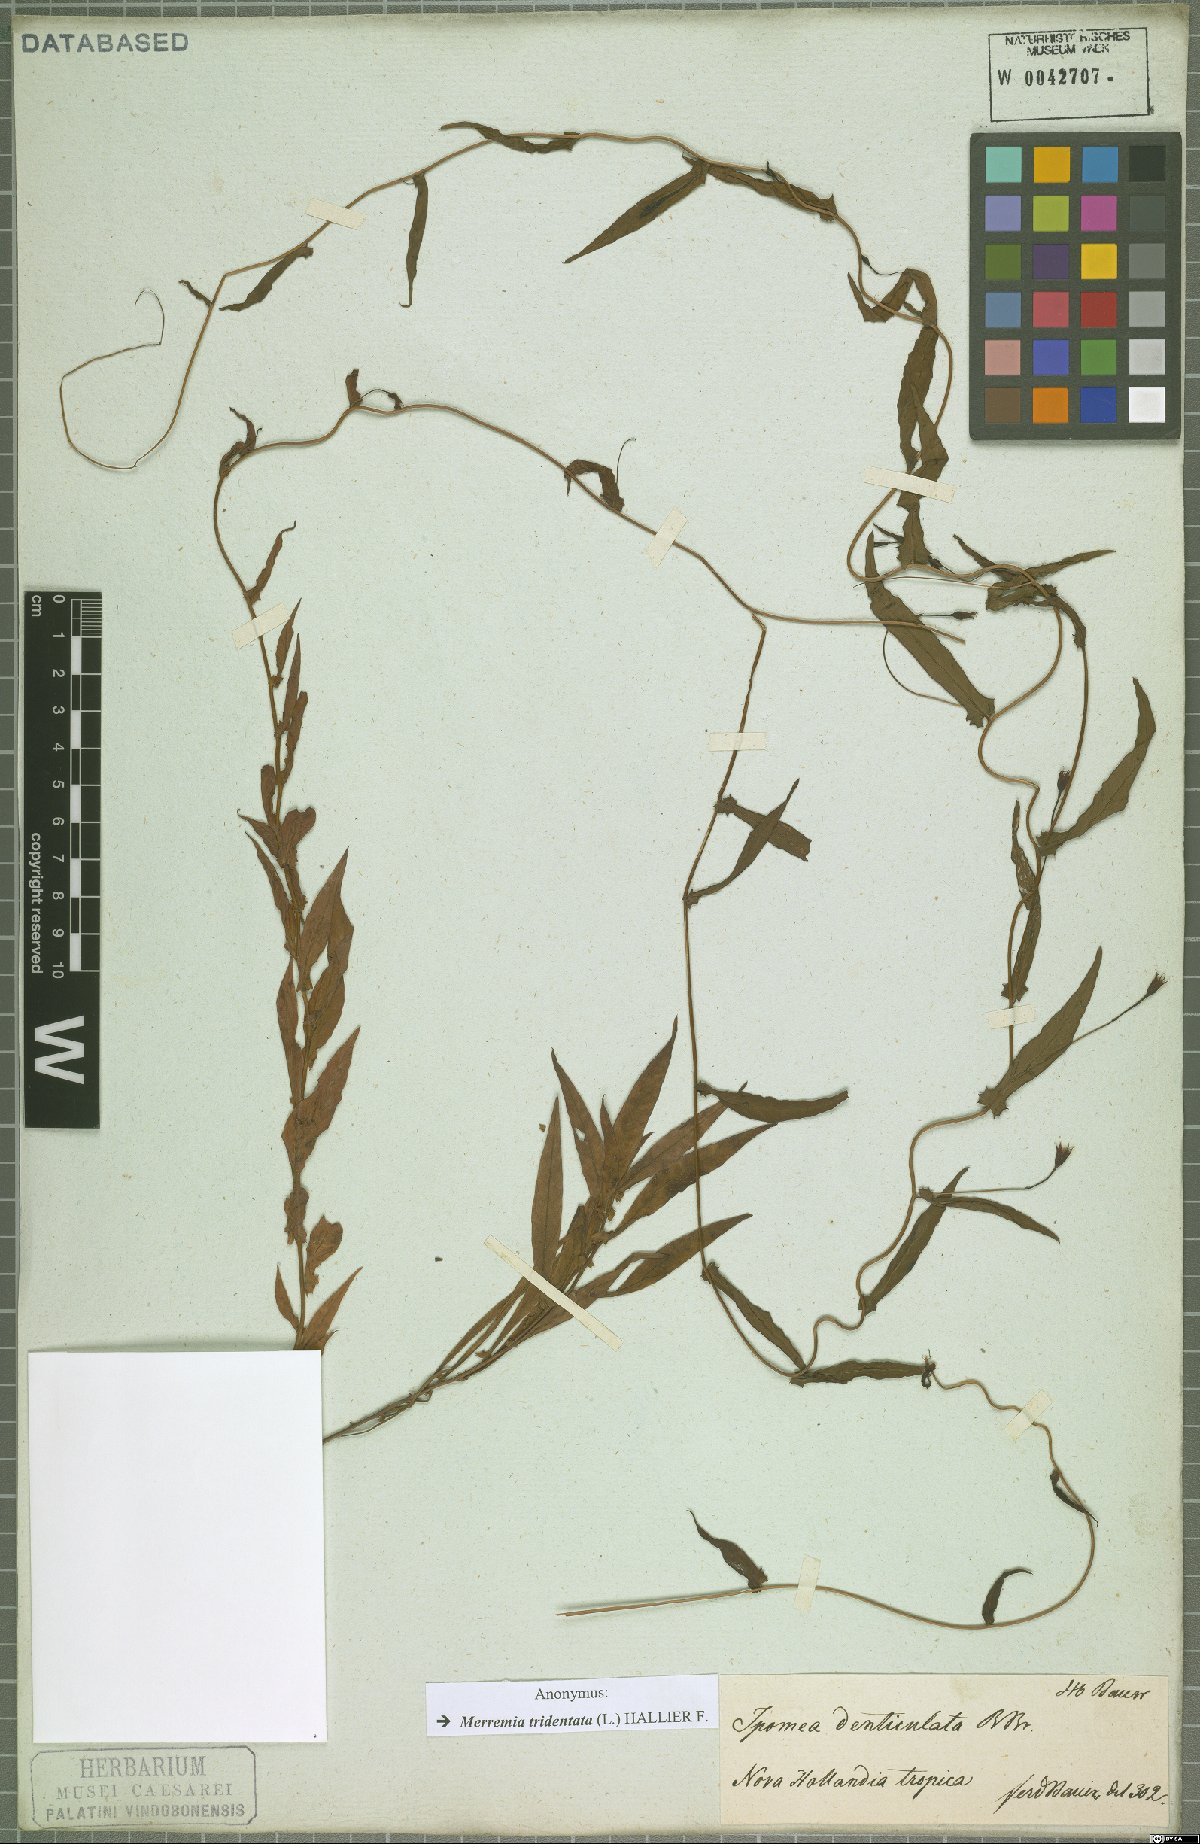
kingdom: Plantae
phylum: Tracheophyta
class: Magnoliopsida
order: Solanales
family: Convolvulaceae
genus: Xenostegia
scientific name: Xenostegia tridentata
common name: African morningvine
